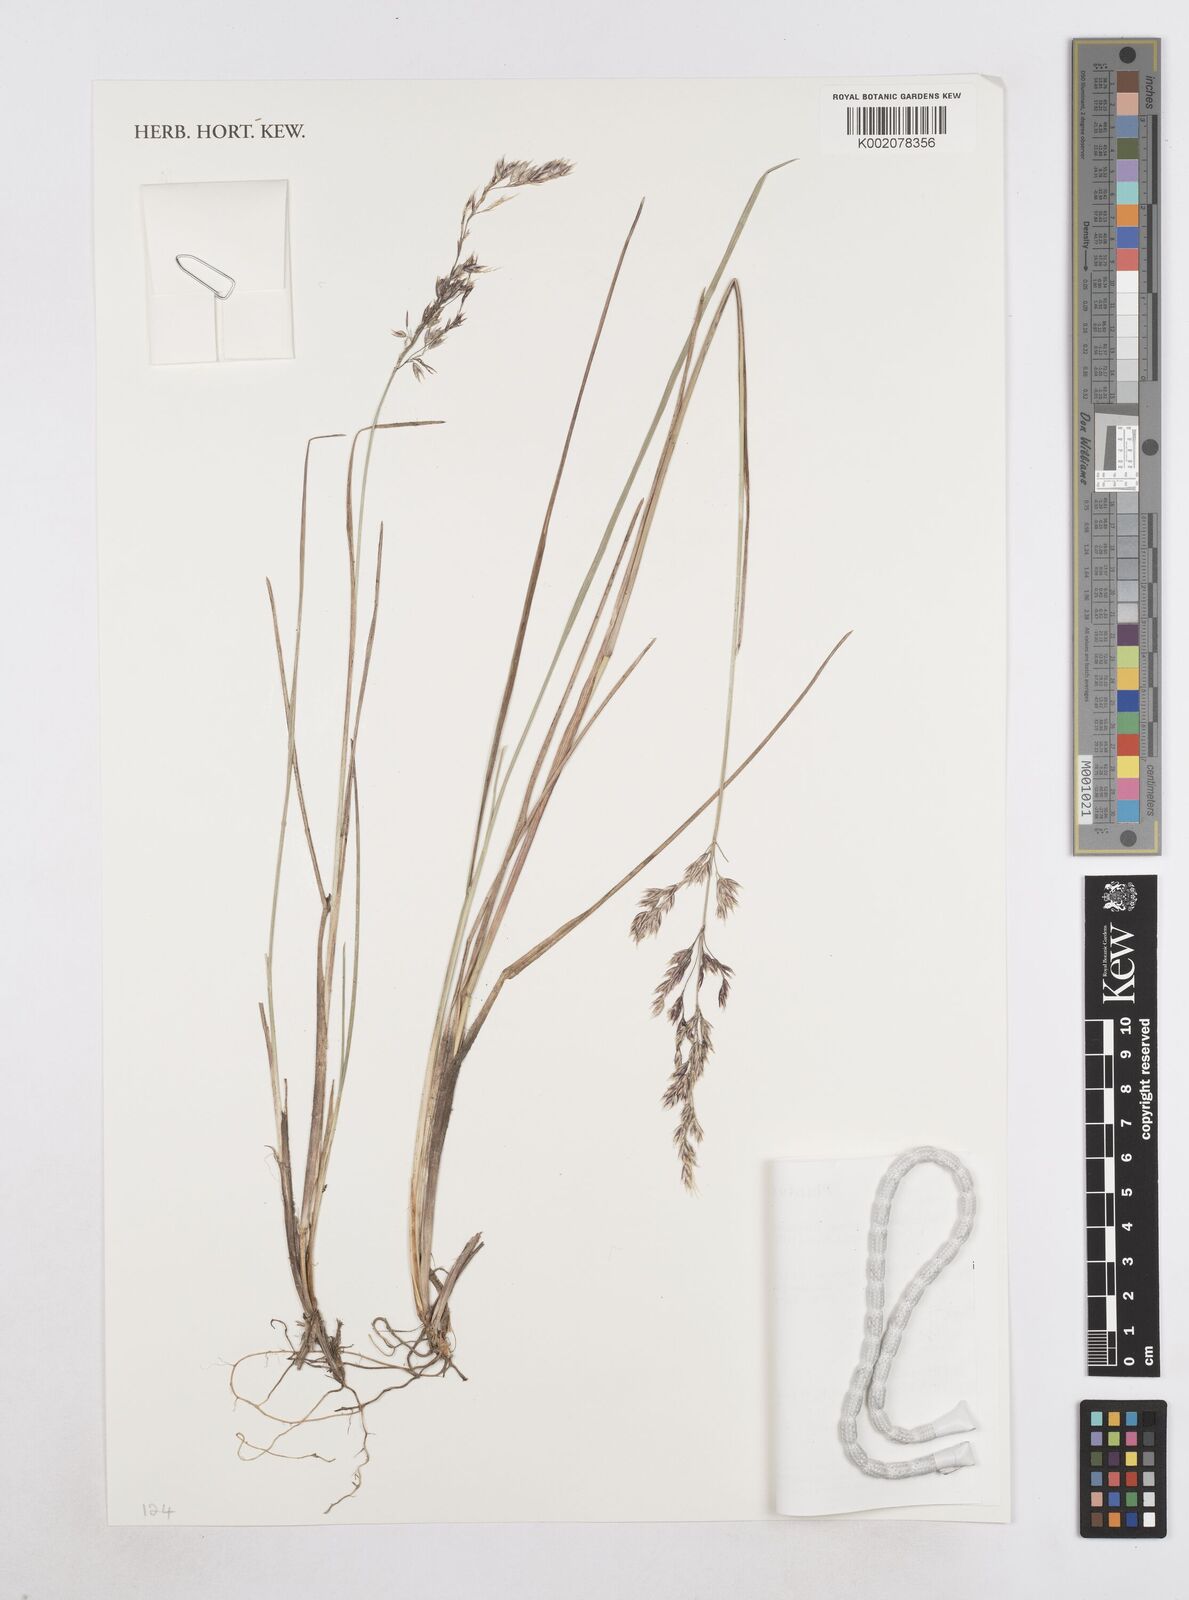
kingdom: Plantae
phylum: Tracheophyta
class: Liliopsida
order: Poales
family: Poaceae
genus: Poa
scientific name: Poa alopecurus
